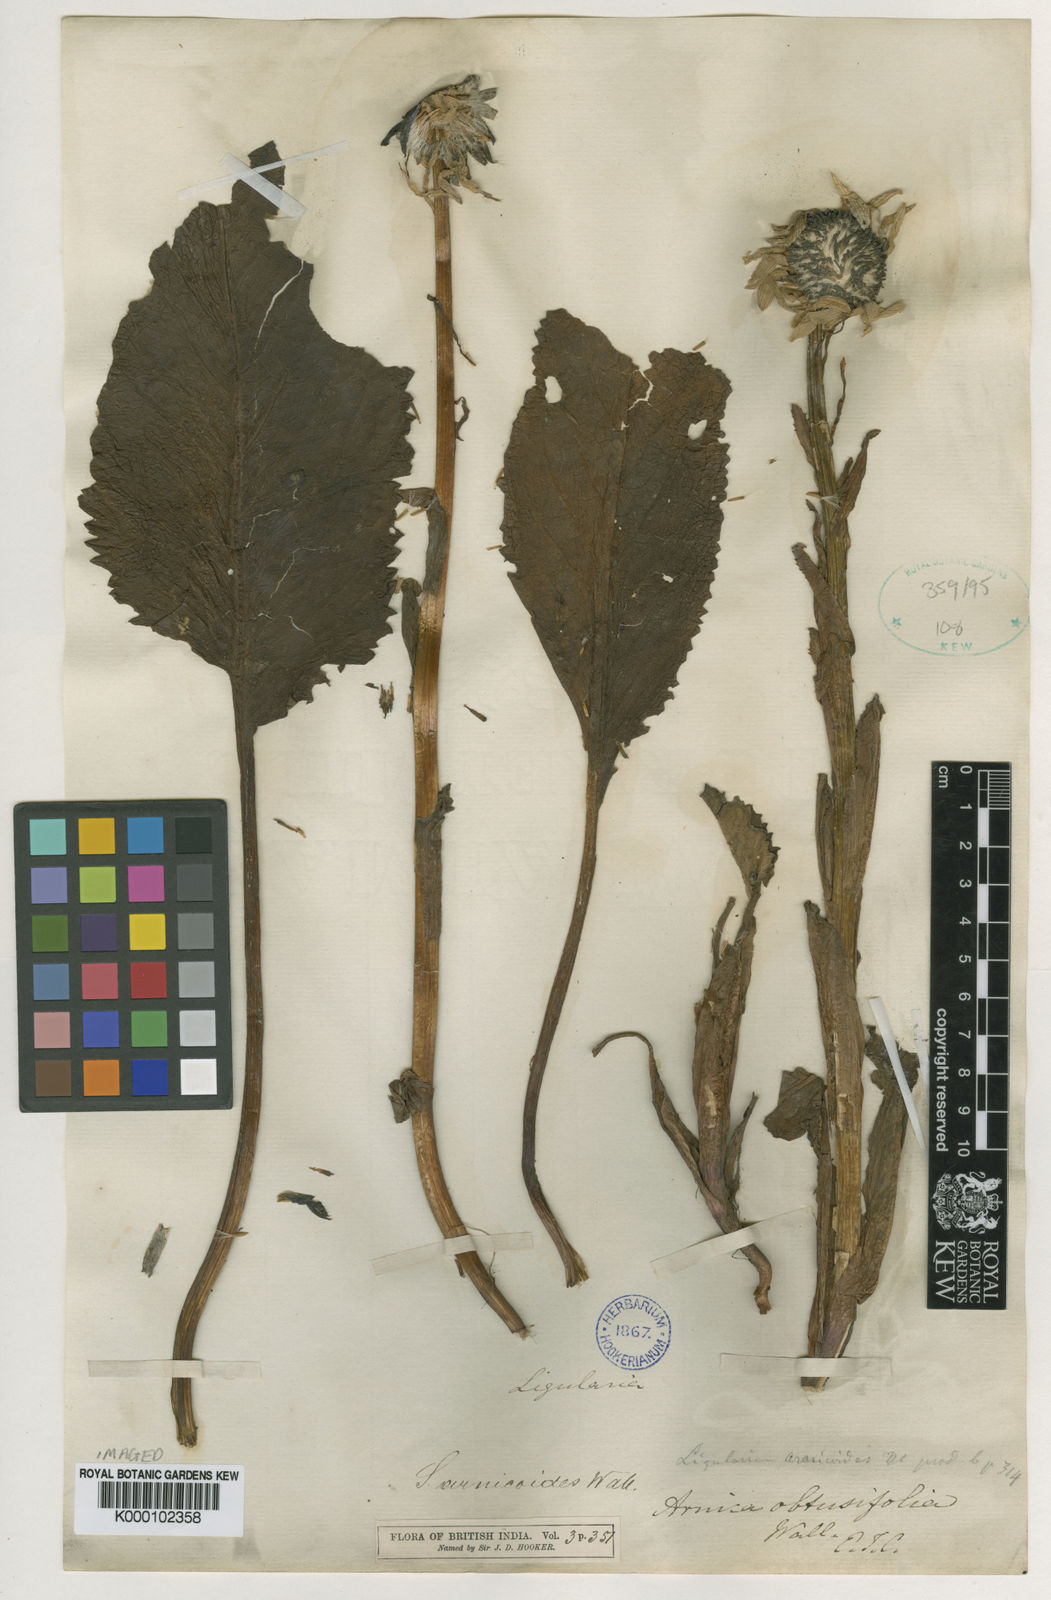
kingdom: Plantae
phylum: Tracheophyta
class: Magnoliopsida
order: Asterales
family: Asteraceae
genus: Cremanthodium
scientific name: Cremanthodium arnicoides
